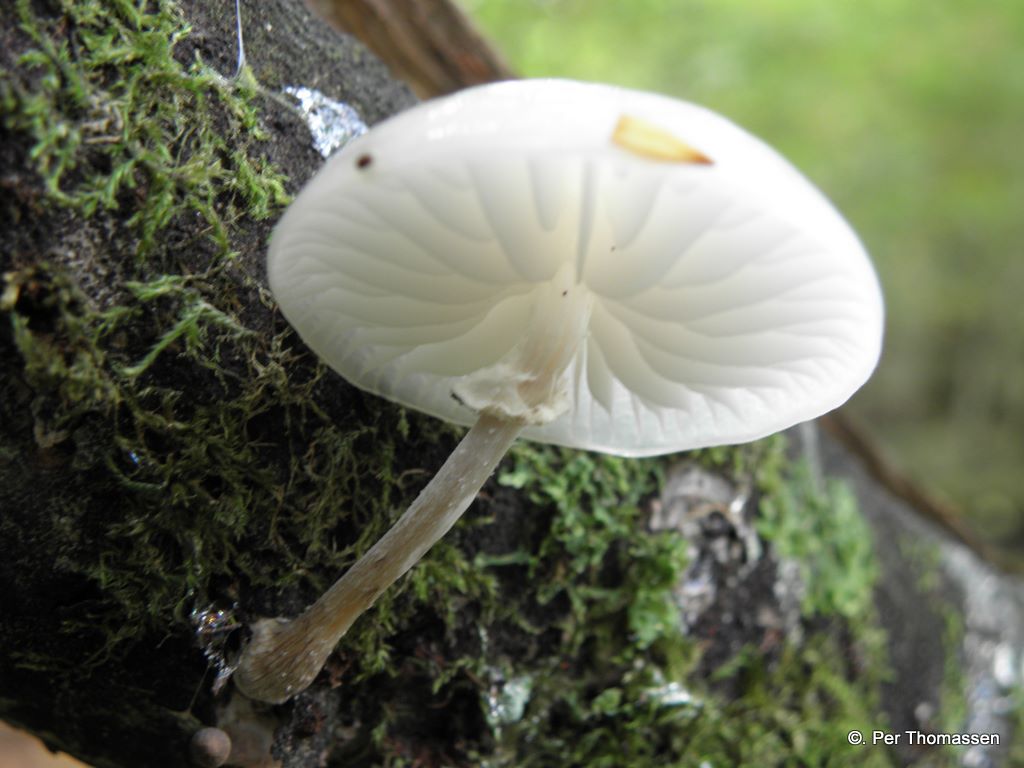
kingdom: Fungi
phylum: Basidiomycota
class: Agaricomycetes
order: Agaricales
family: Physalacriaceae
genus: Mucidula
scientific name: Mucidula mucida
